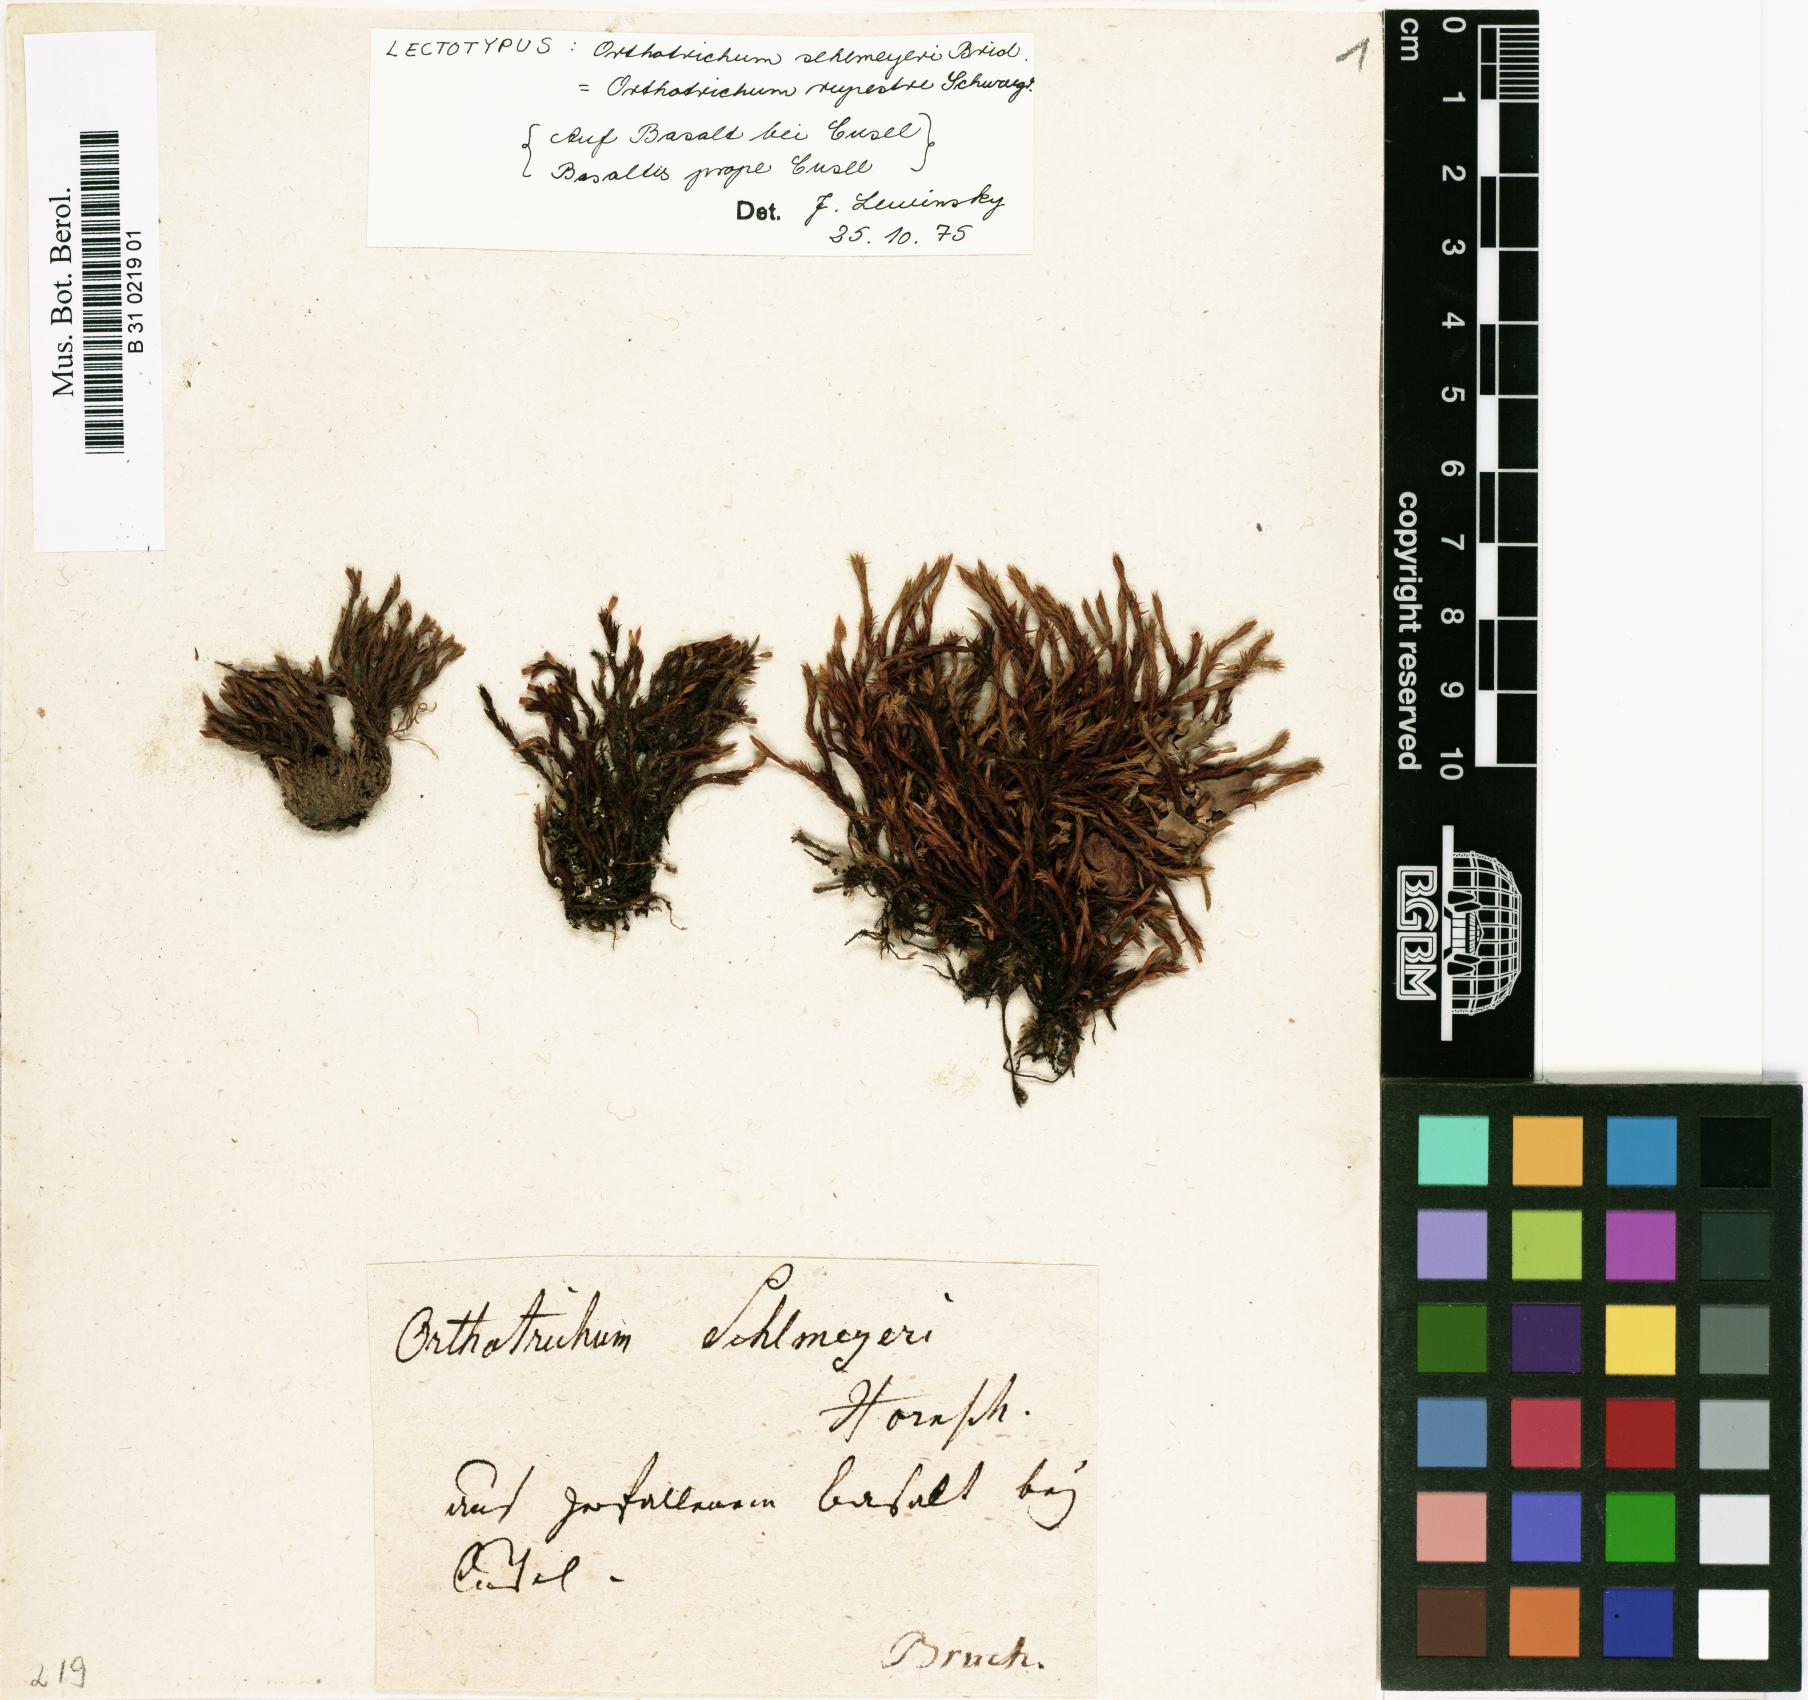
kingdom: Plantae
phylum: Bryophyta
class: Bryopsida
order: Orthotrichales
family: Orthotrichaceae
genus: Lewinskya
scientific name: Lewinskya rupestris
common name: Rock bristle-moss
